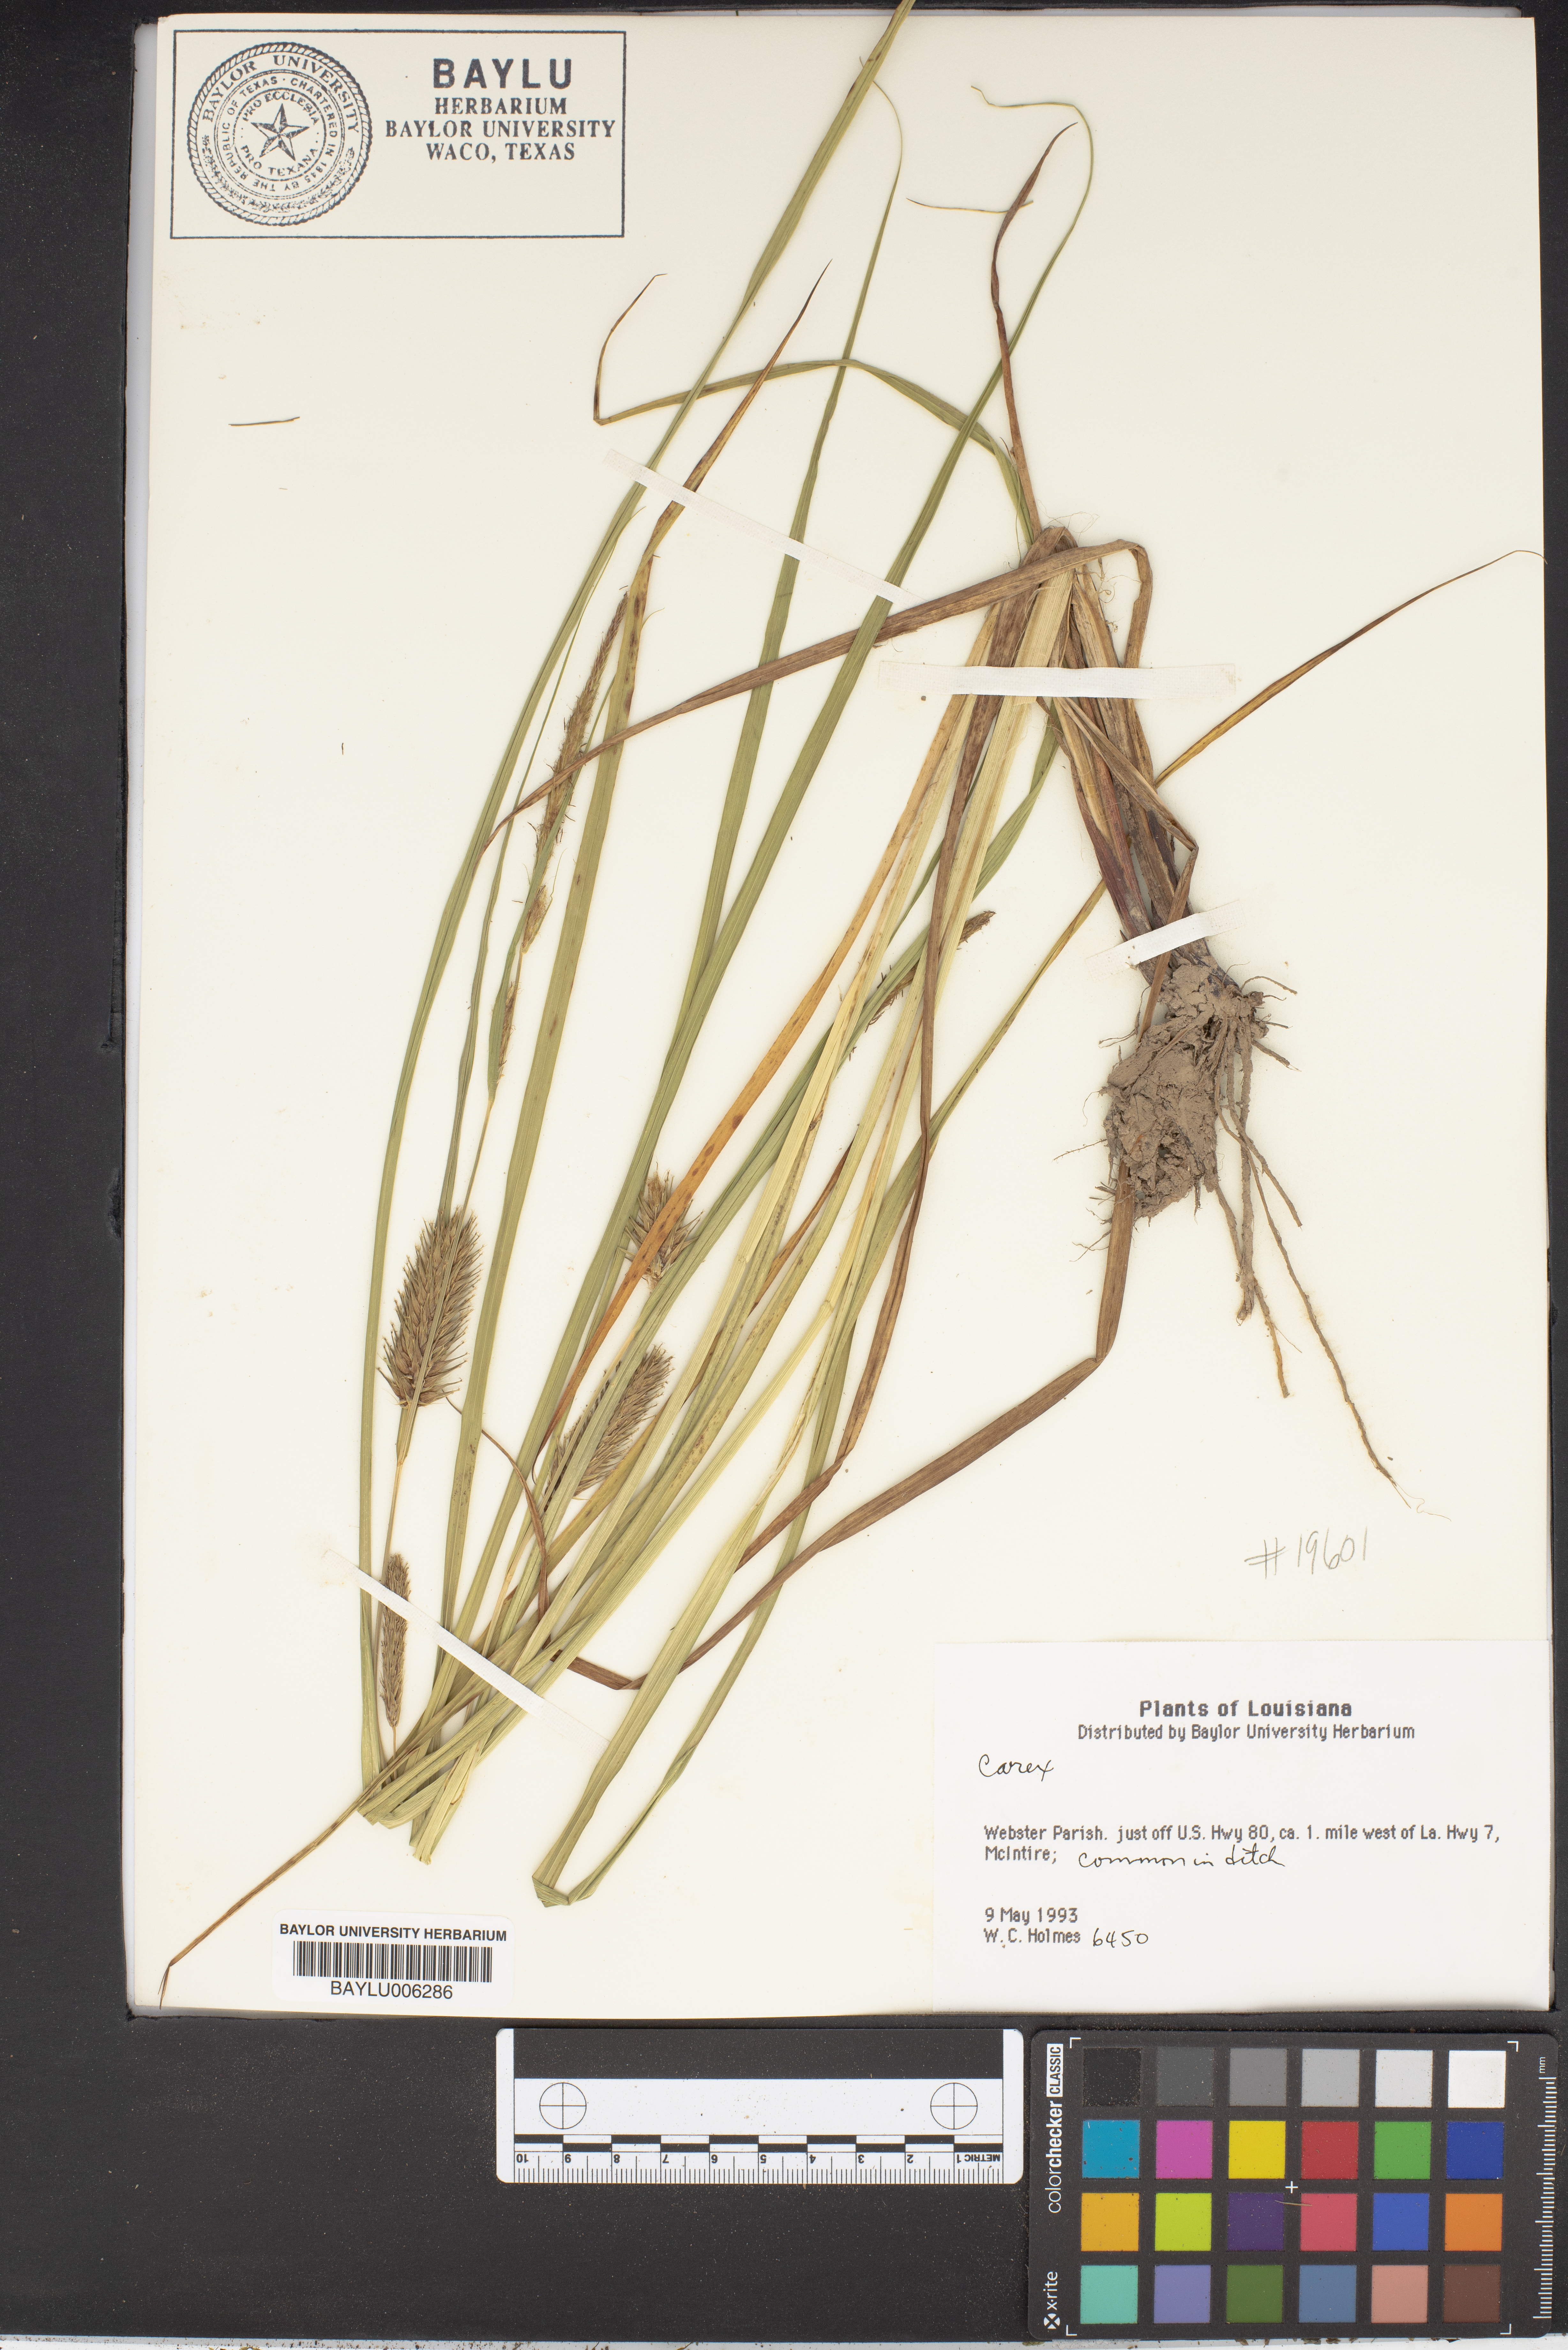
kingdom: Plantae
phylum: Tracheophyta
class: Liliopsida
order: Poales
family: Cyperaceae
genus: Carex
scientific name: Carex
